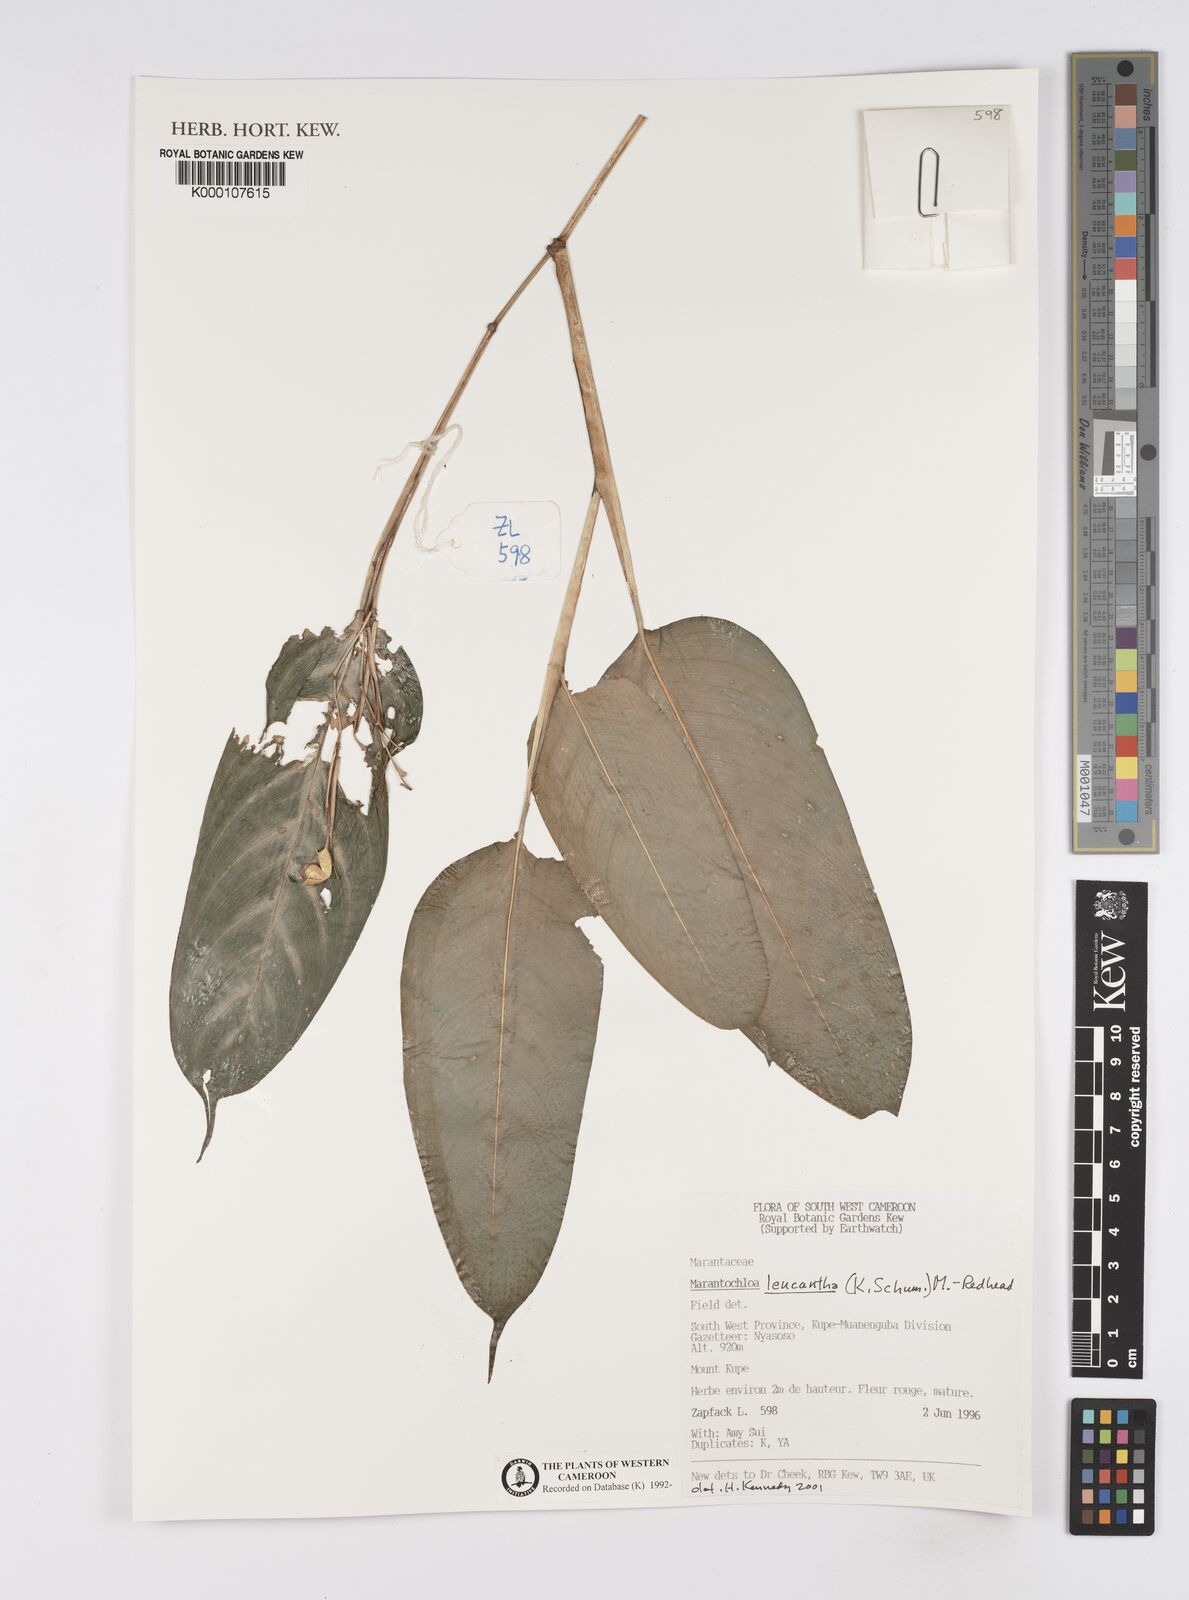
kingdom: Plantae
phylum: Tracheophyta
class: Liliopsida
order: Zingiberales
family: Marantaceae
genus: Marantochloa
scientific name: Marantochloa leucantha
